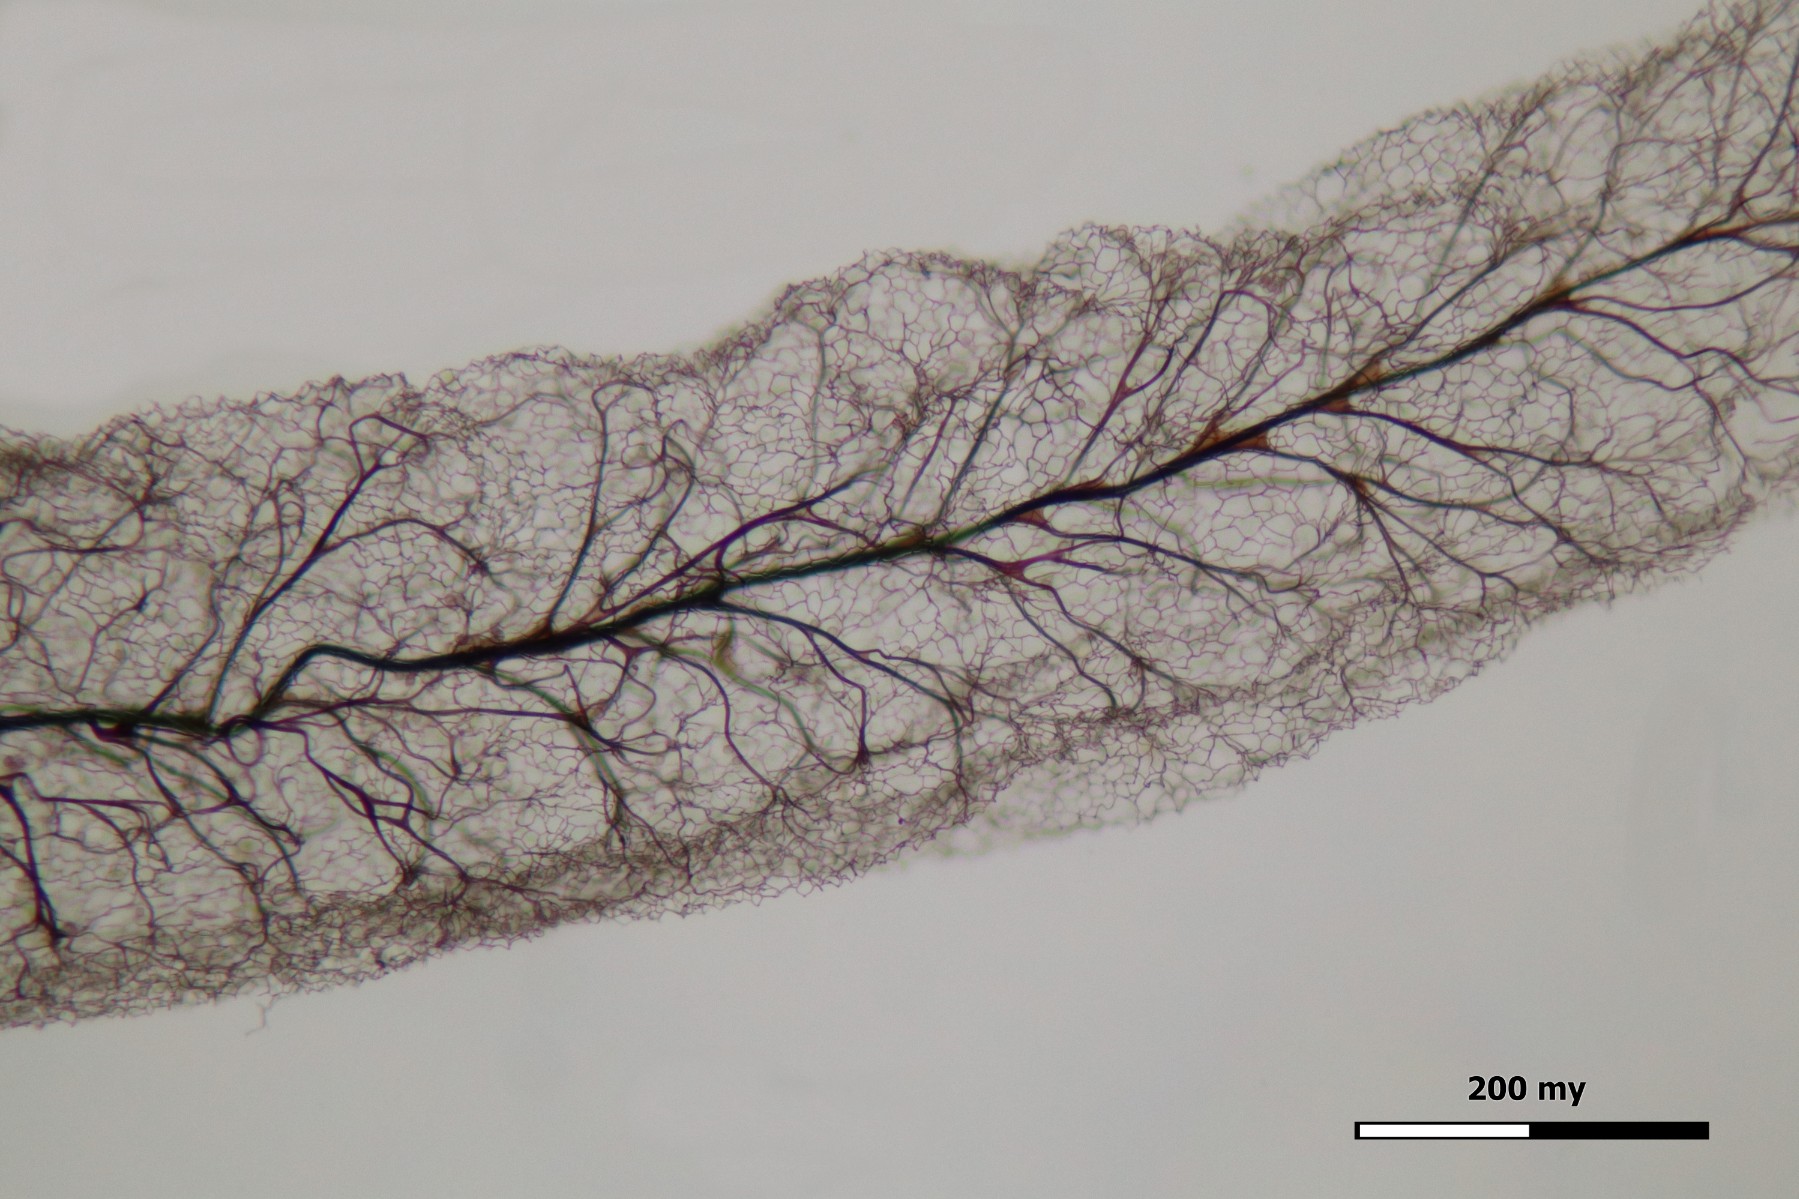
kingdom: Protozoa
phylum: Mycetozoa
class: Myxomycetes
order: Stemonitidales
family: Stemonitidaceae
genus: Stemonitis
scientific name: Stemonitis axifera
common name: rødbrun støvkølle
